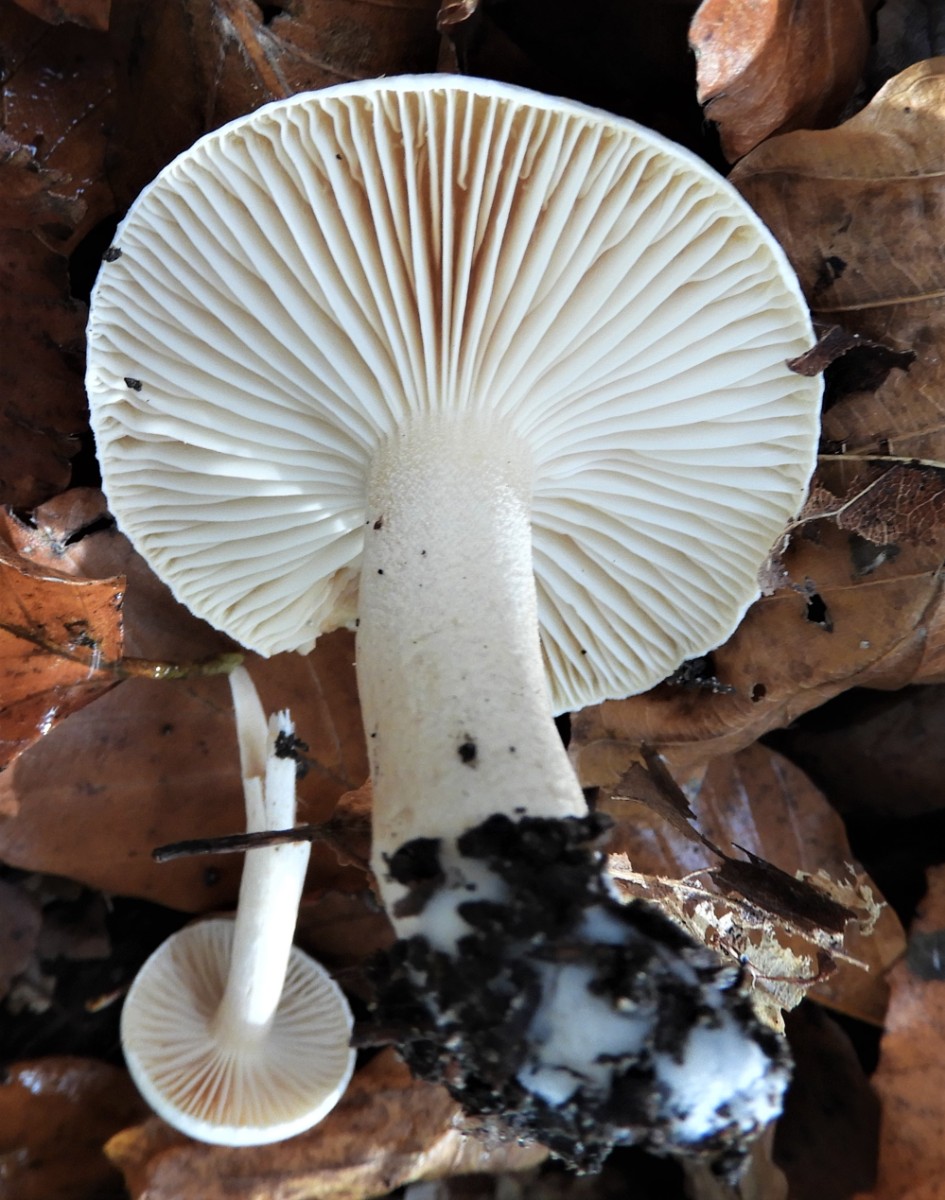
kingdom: Fungi
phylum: Basidiomycota
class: Agaricomycetes
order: Agaricales
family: Hygrophoraceae
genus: Hygrophorus
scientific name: Hygrophorus unicolor
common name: orangeøjet sneglehat
